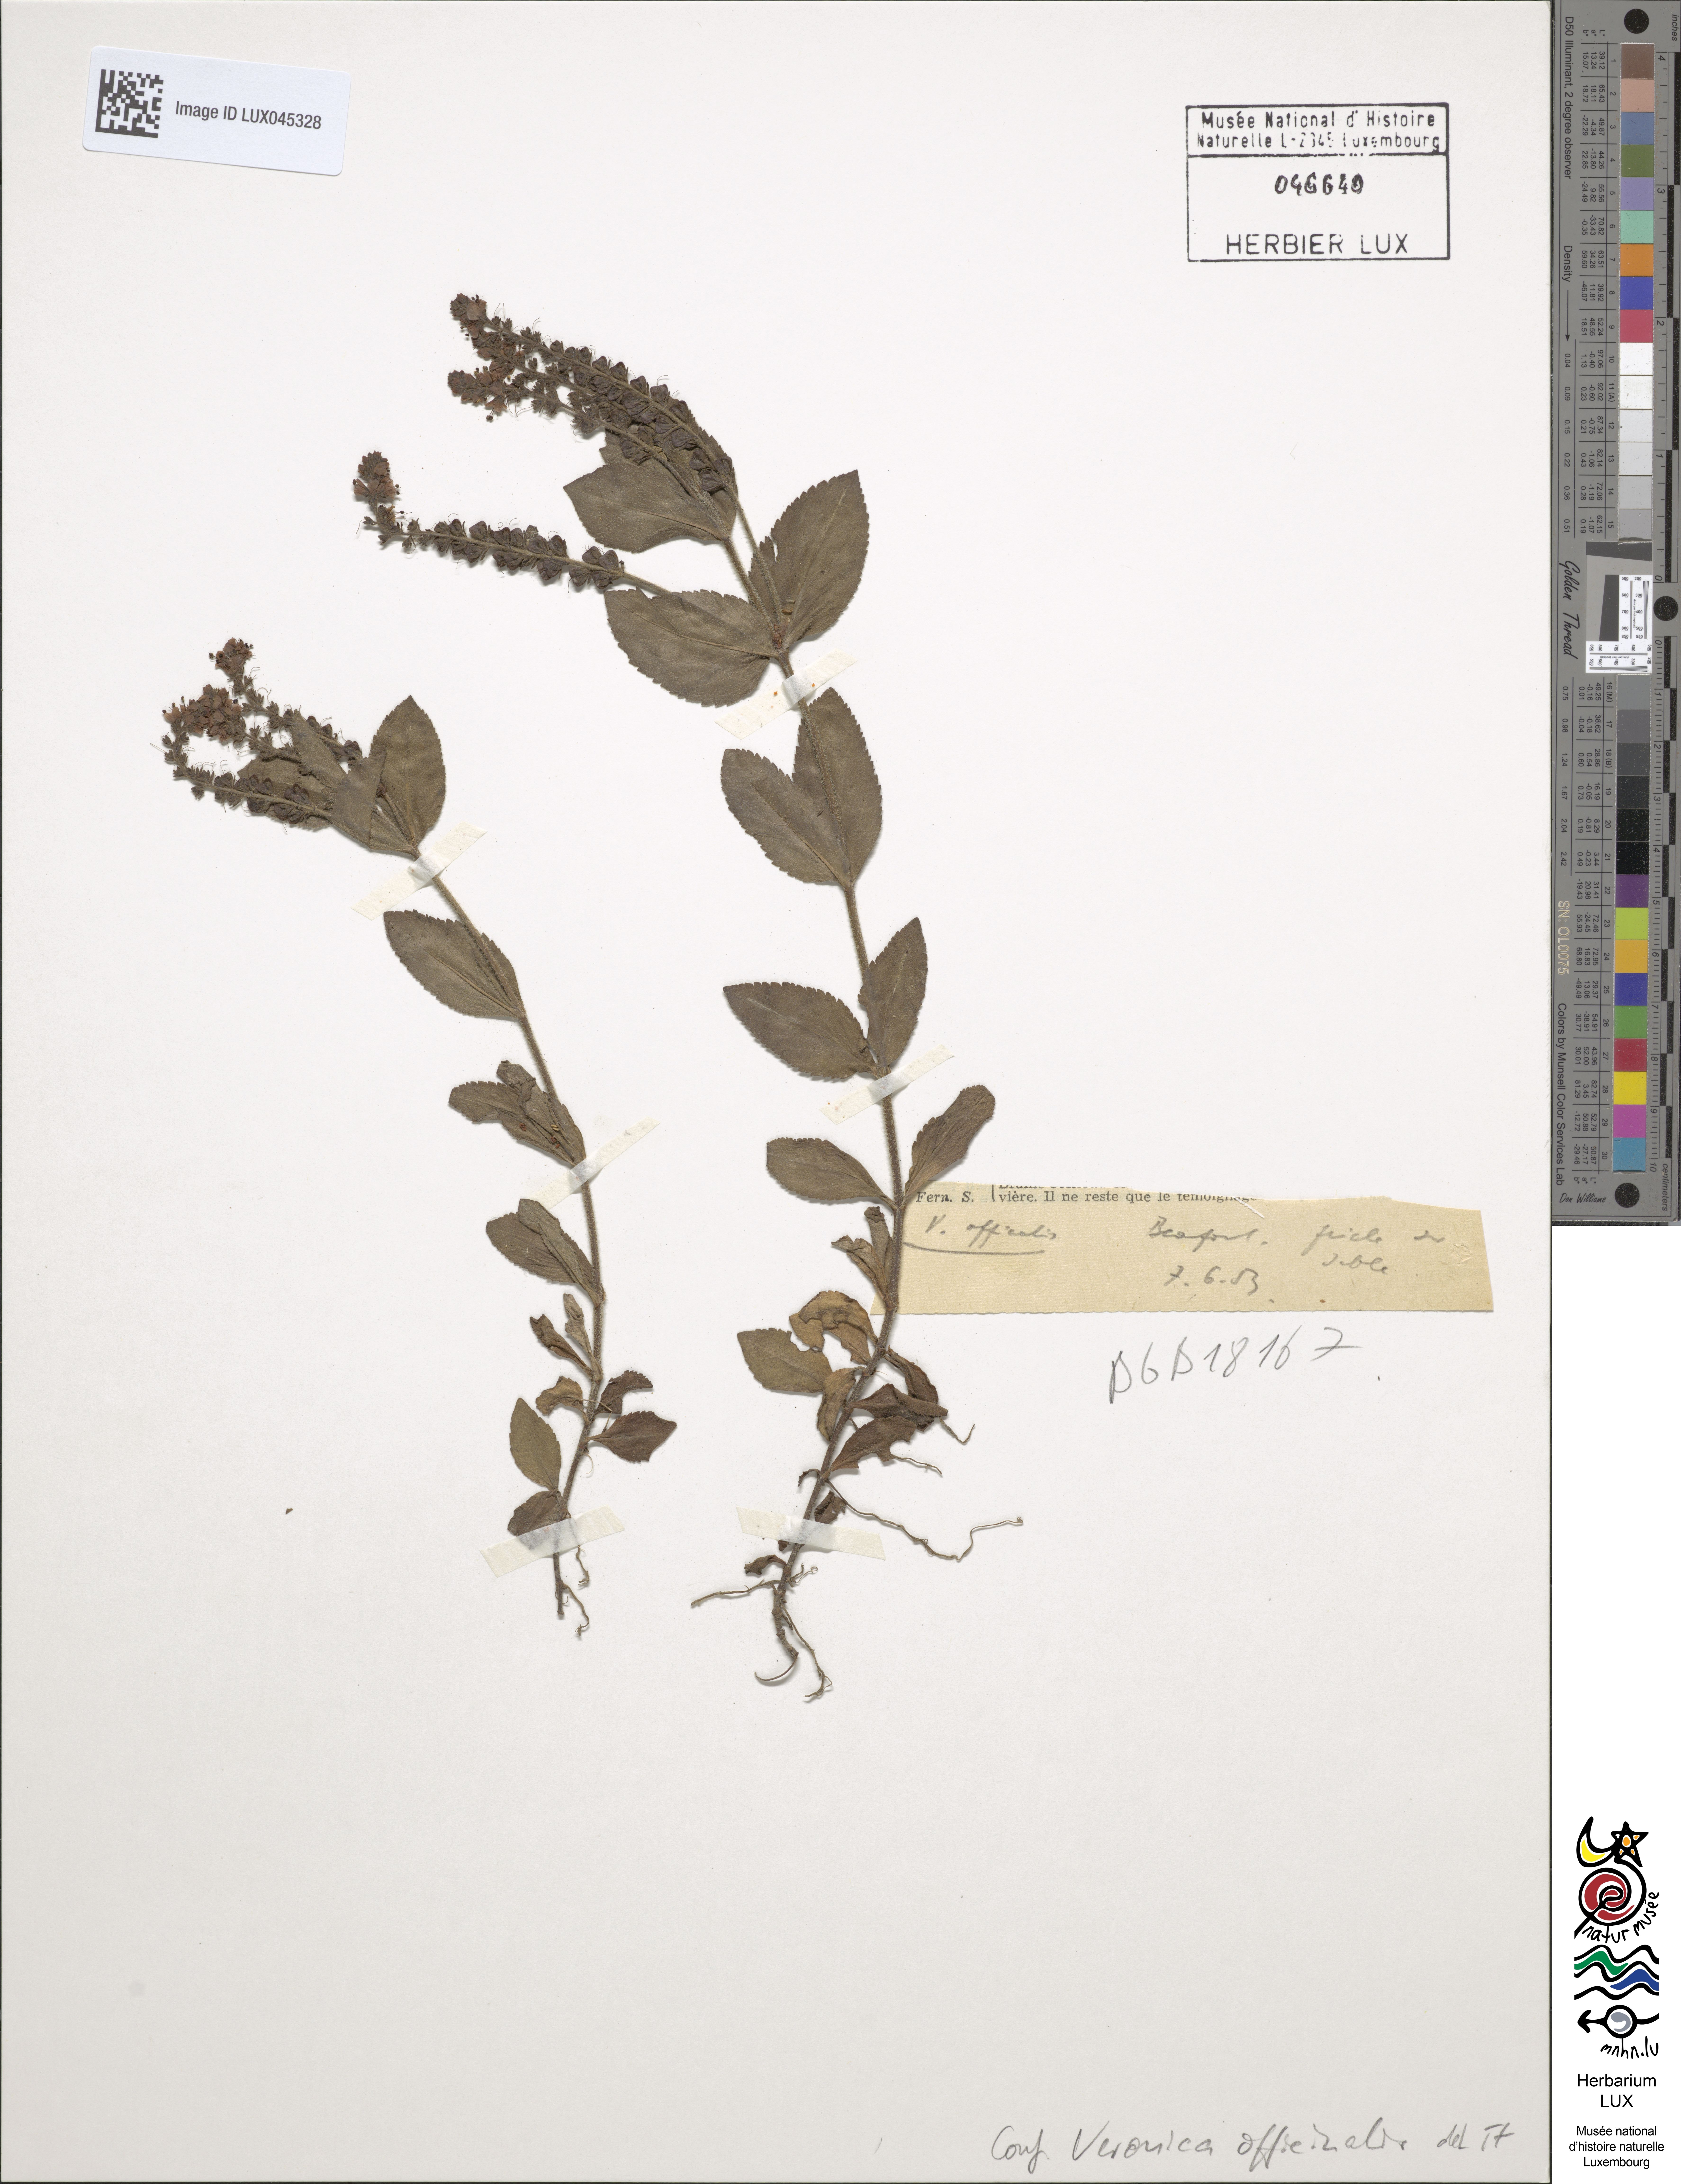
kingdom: Plantae
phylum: Tracheophyta
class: Magnoliopsida
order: Lamiales
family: Plantaginaceae
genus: Veronica
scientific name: Veronica officinalis
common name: Common speedwell
